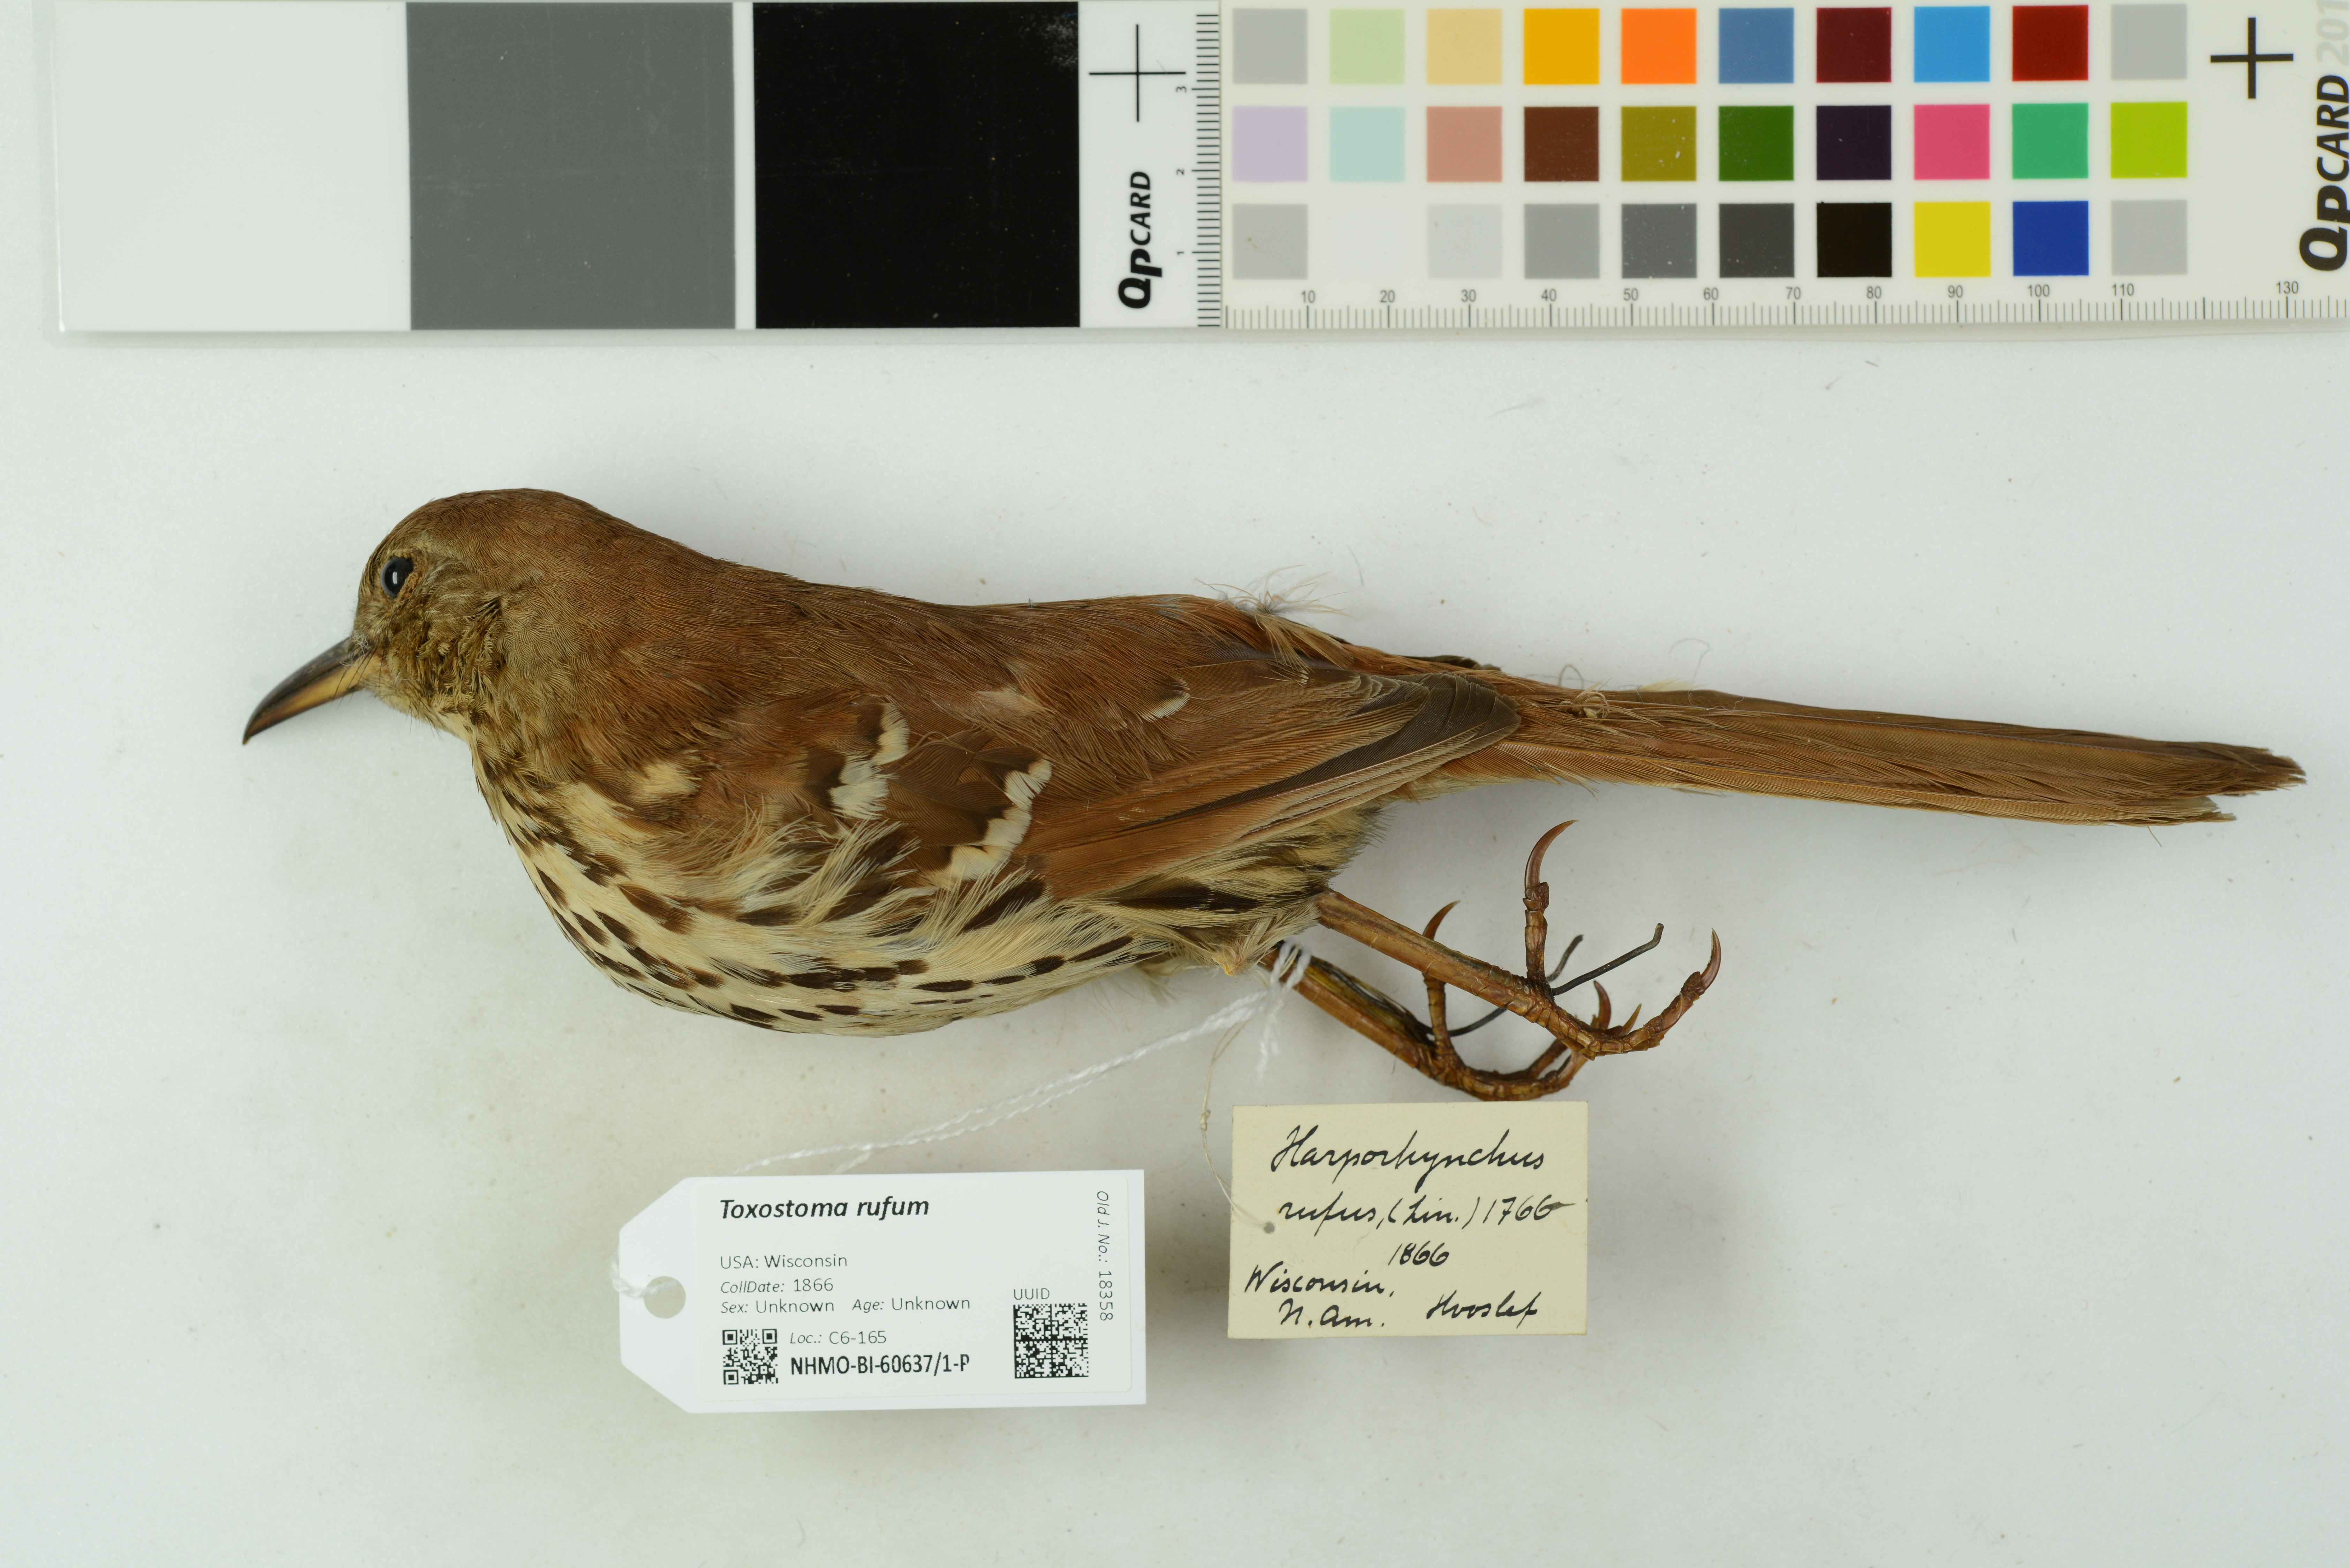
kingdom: Animalia
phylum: Chordata
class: Aves
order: Passeriformes
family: Mimidae
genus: Toxostoma
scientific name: Toxostoma rufum
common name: Brown thrasher
